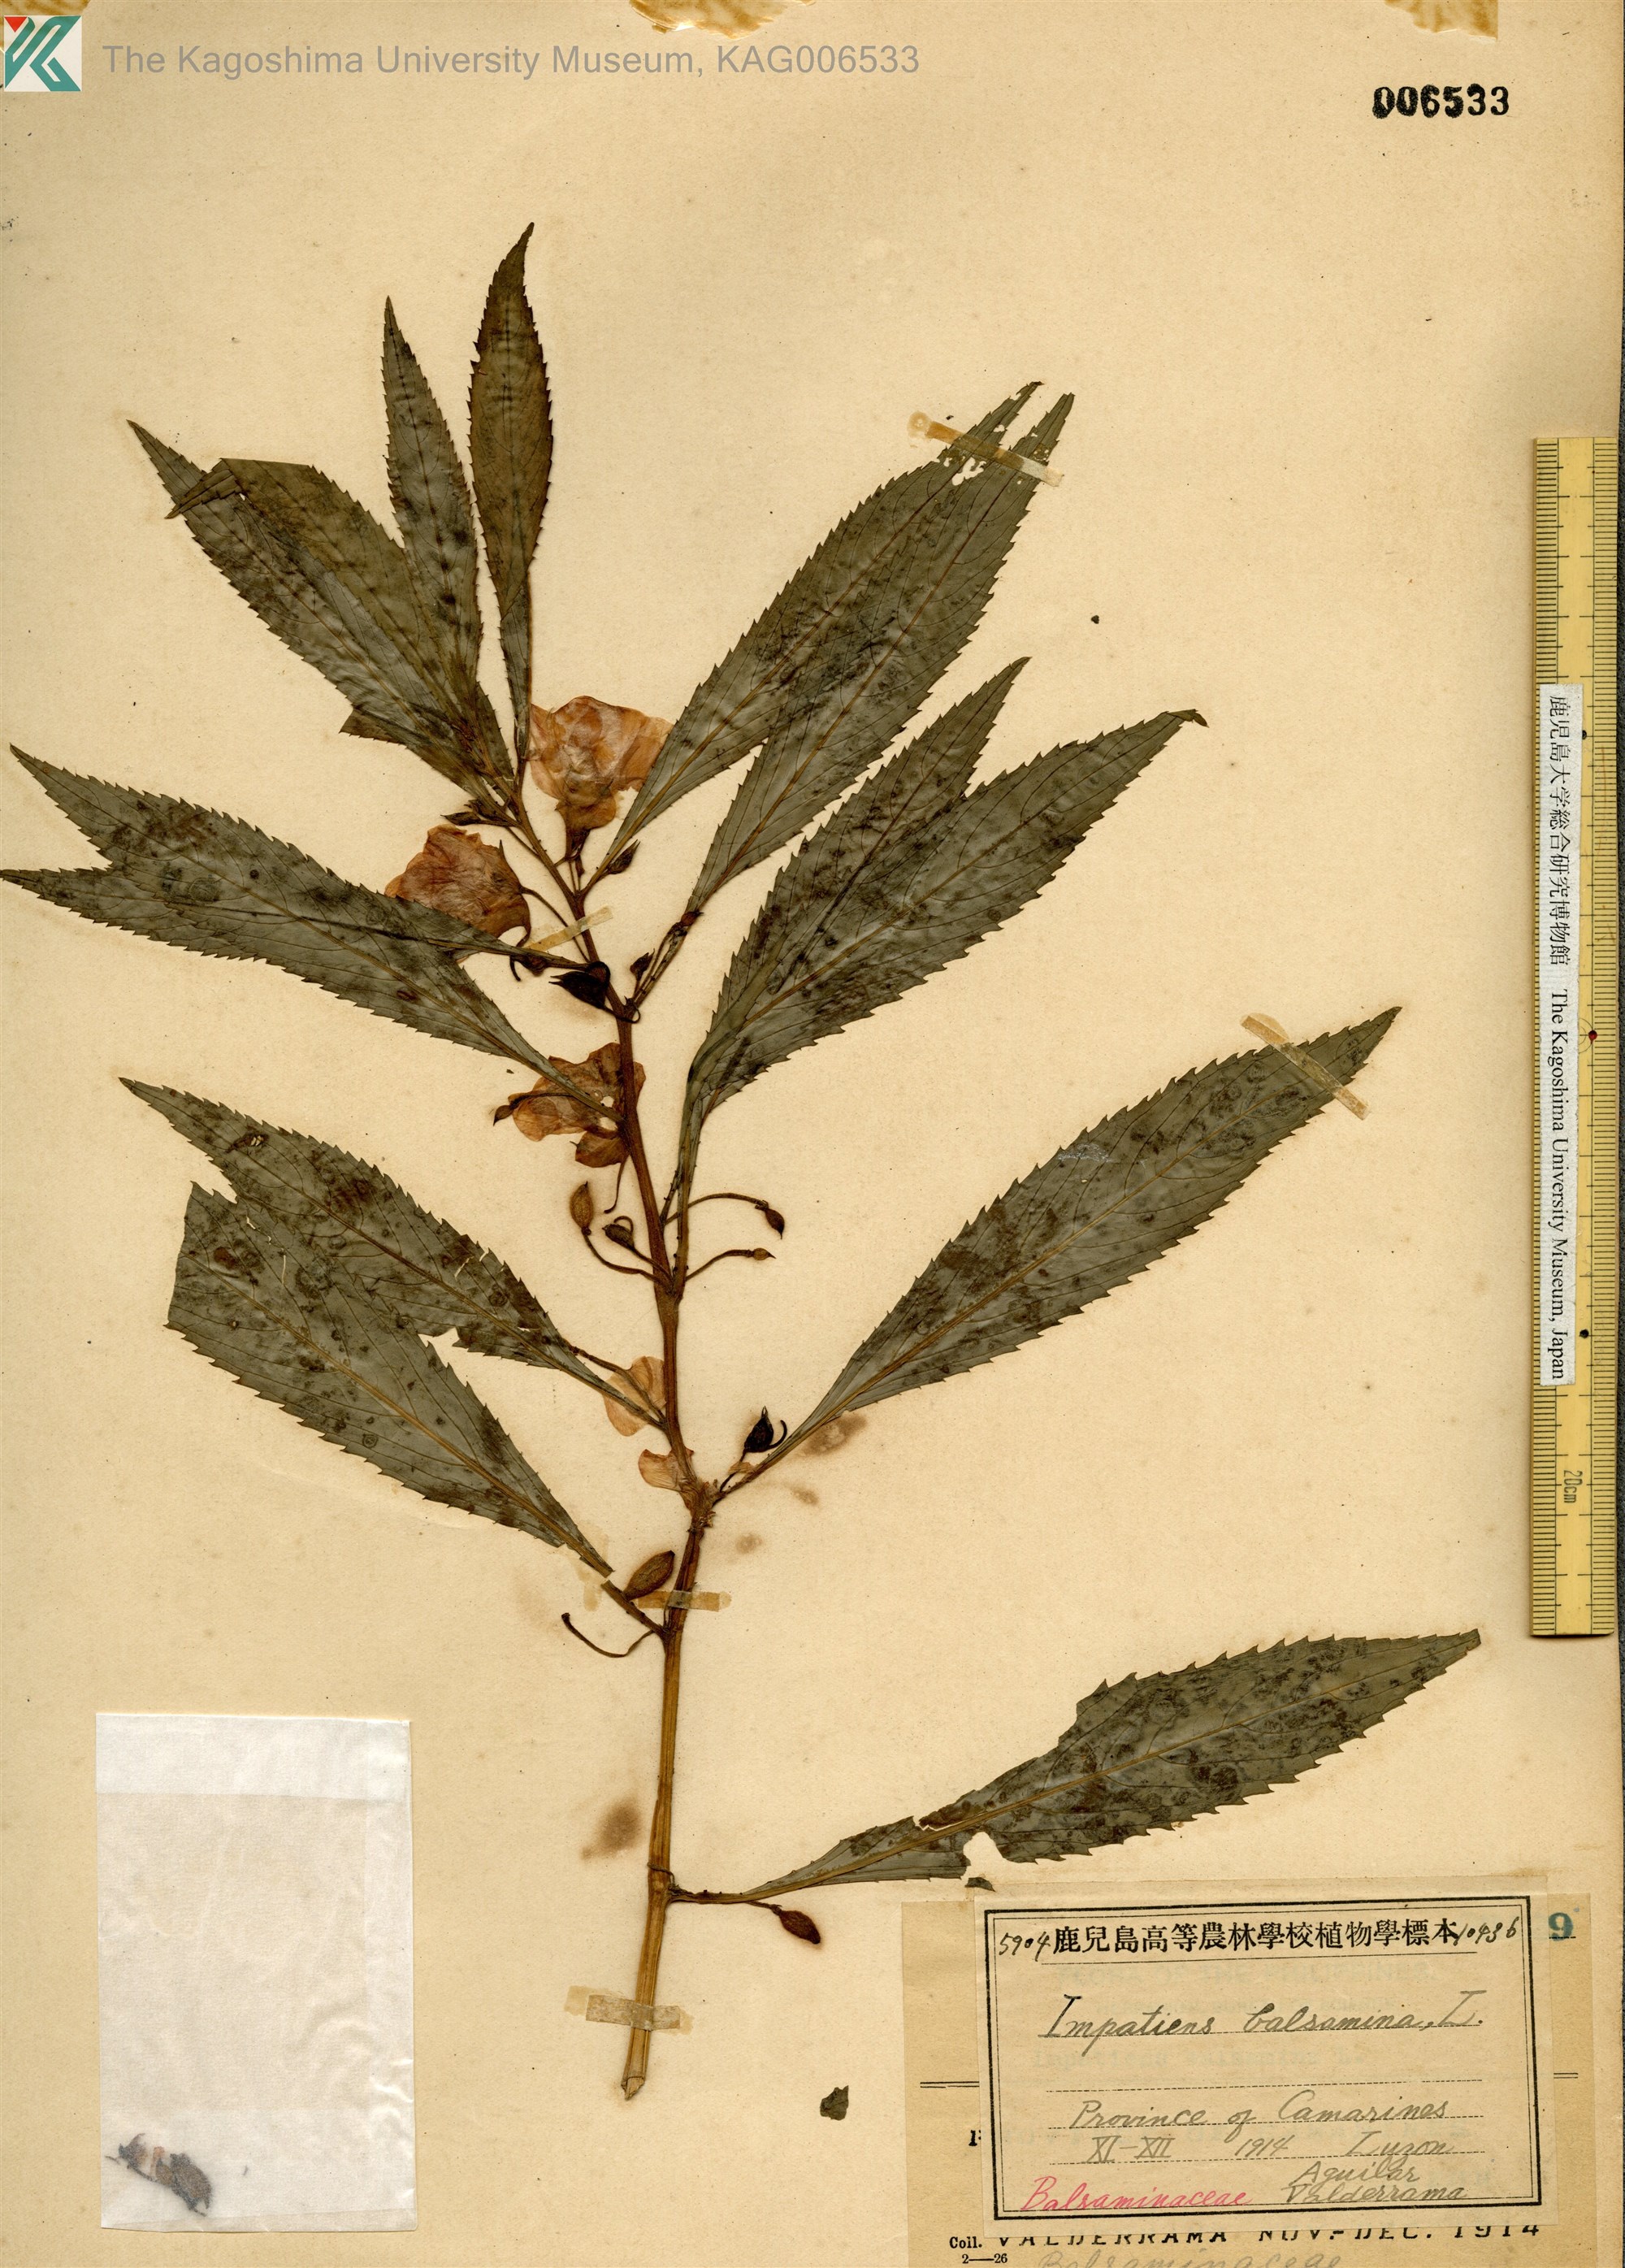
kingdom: Plantae
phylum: Tracheophyta
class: Magnoliopsida
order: Ericales
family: Balsaminaceae
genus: Impatiens
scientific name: Impatiens balsamina
